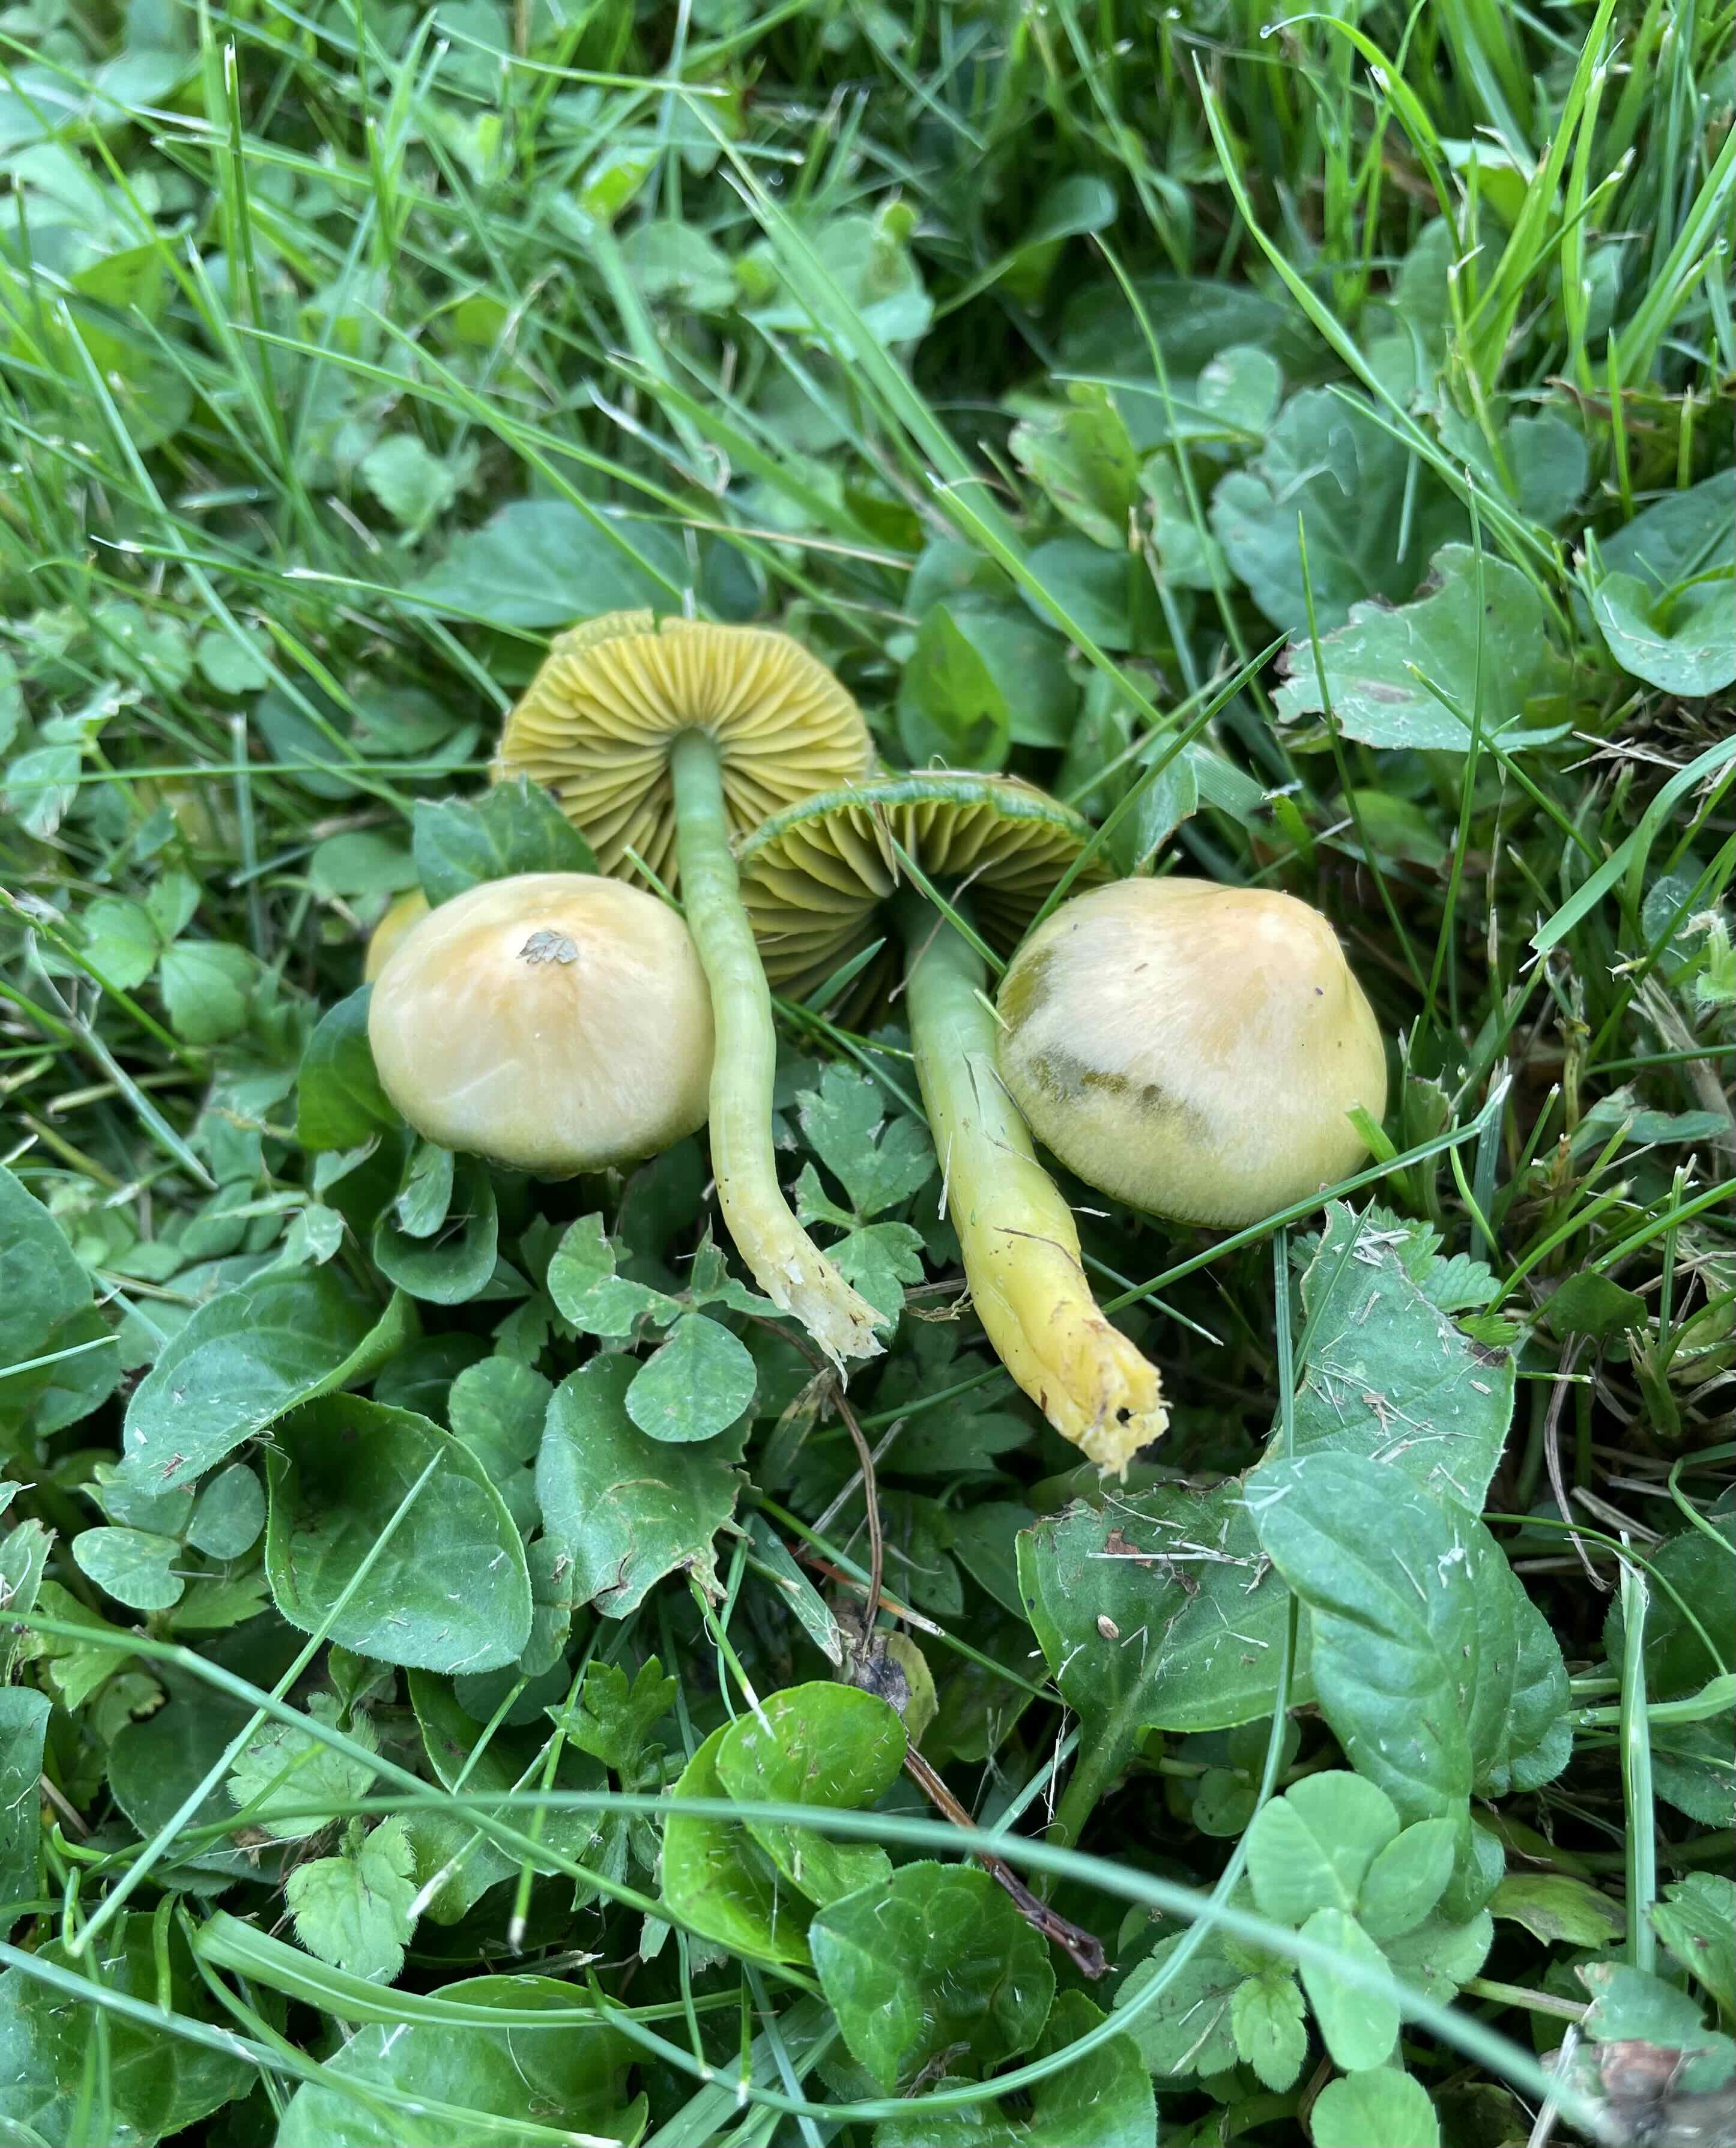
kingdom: Fungi
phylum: Basidiomycota
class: Agaricomycetes
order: Agaricales
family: Hygrophoraceae
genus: Gliophorus
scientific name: Gliophorus psittacinus
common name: papegøje-vokshat
